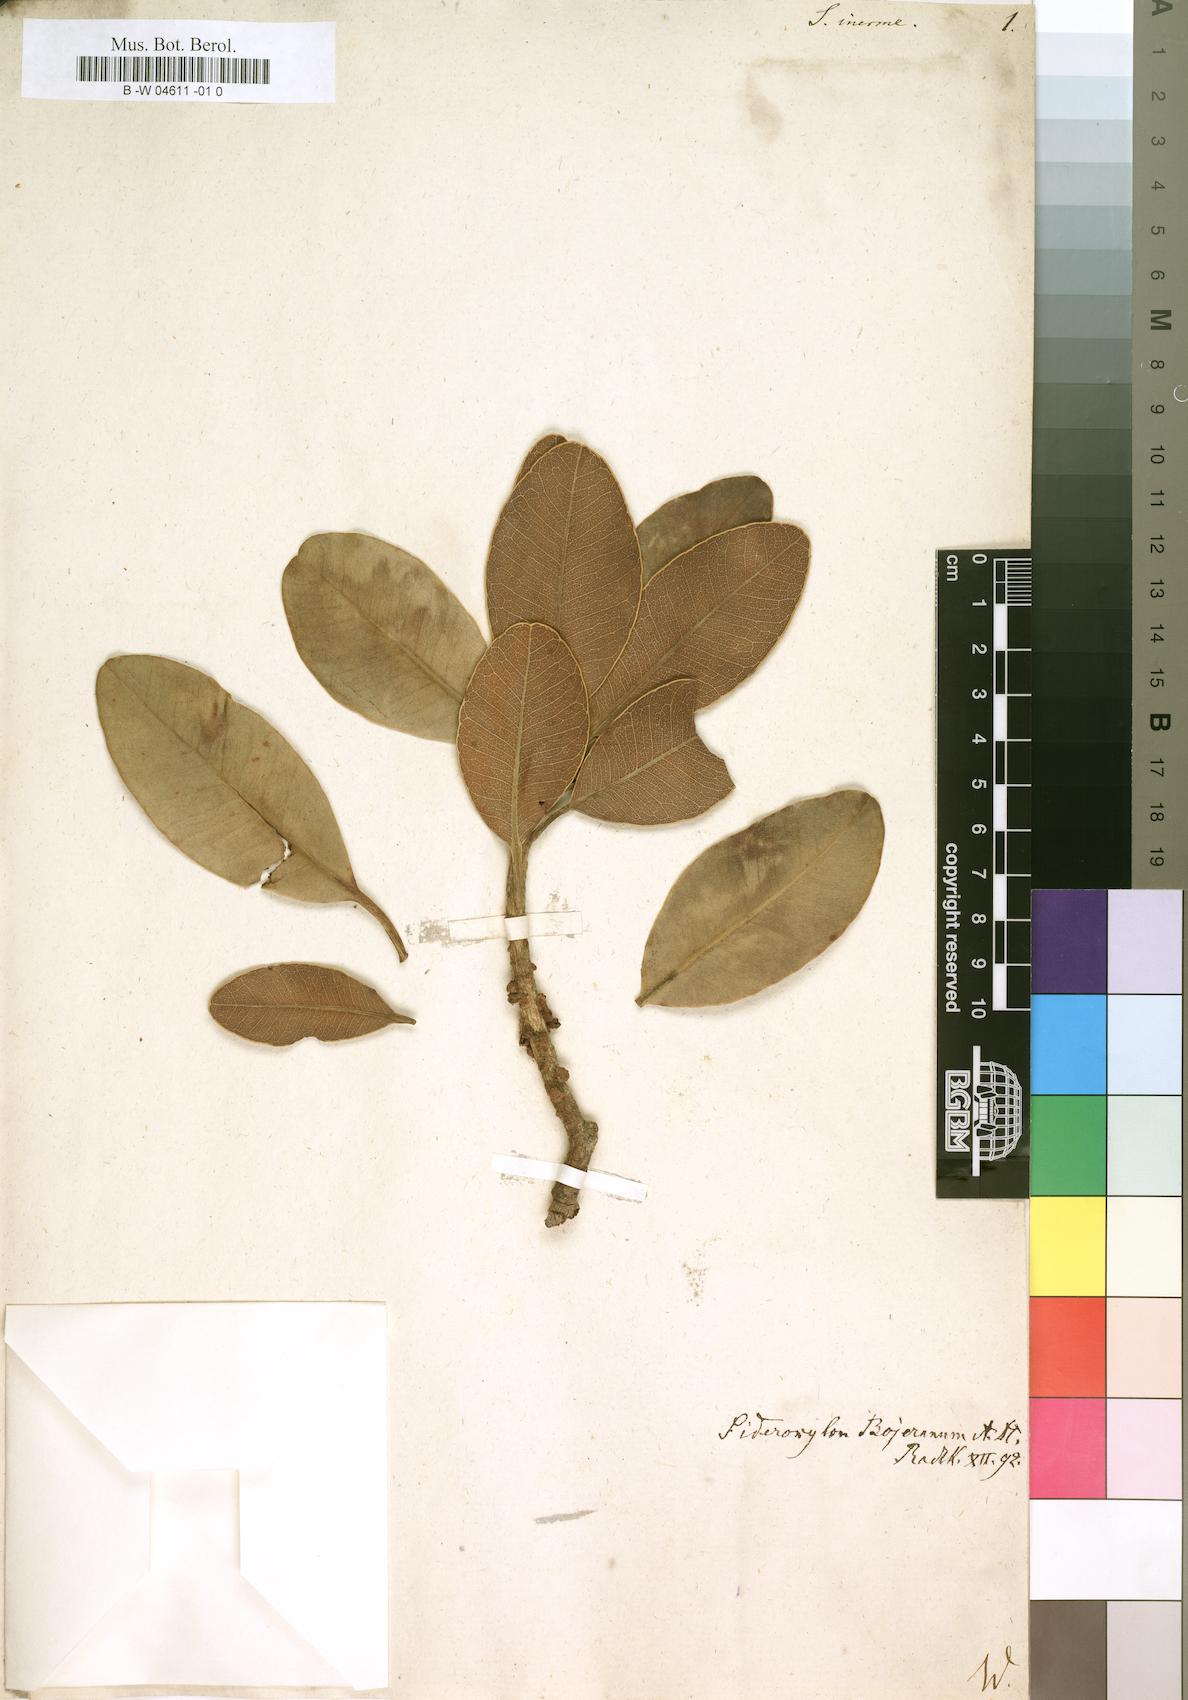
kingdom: Plantae
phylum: Tracheophyta
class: Magnoliopsida
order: Ericales
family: Sapotaceae
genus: Sideroxylon
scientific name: Sideroxylon inerme
